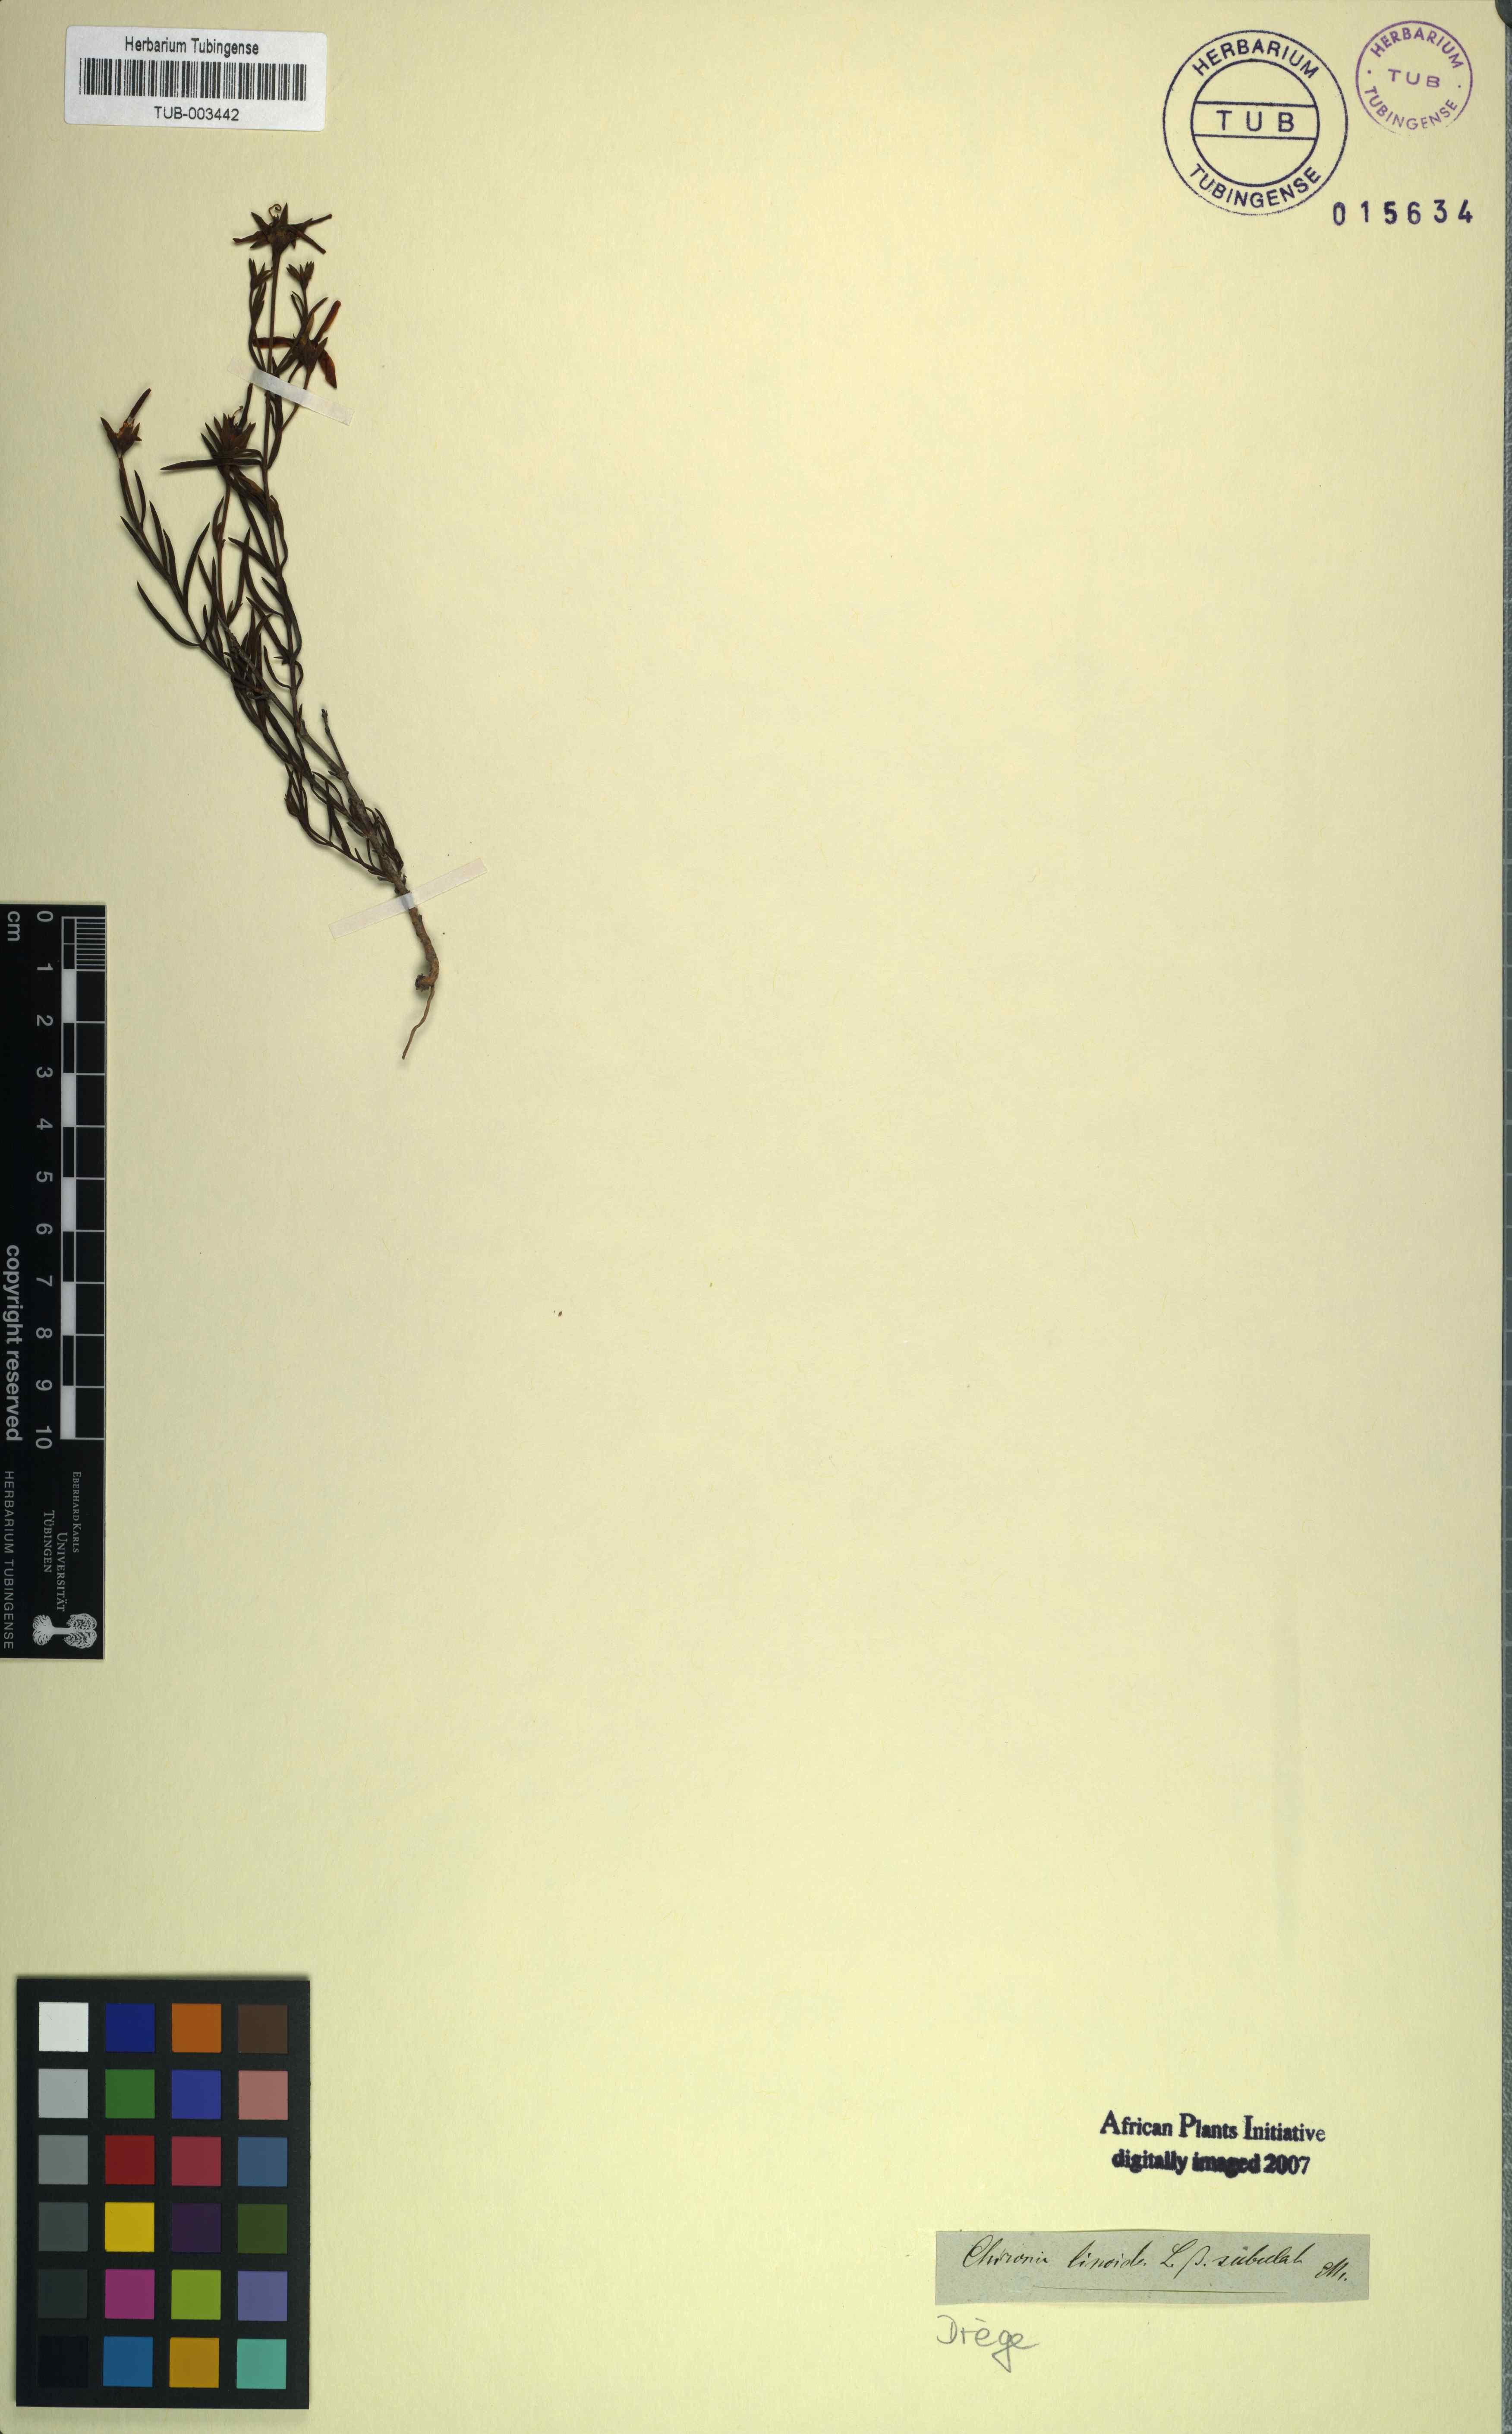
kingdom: Plantae
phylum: Tracheophyta
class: Magnoliopsida
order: Gentianales
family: Gentianaceae
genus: Chironia
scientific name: Chironia linoides
